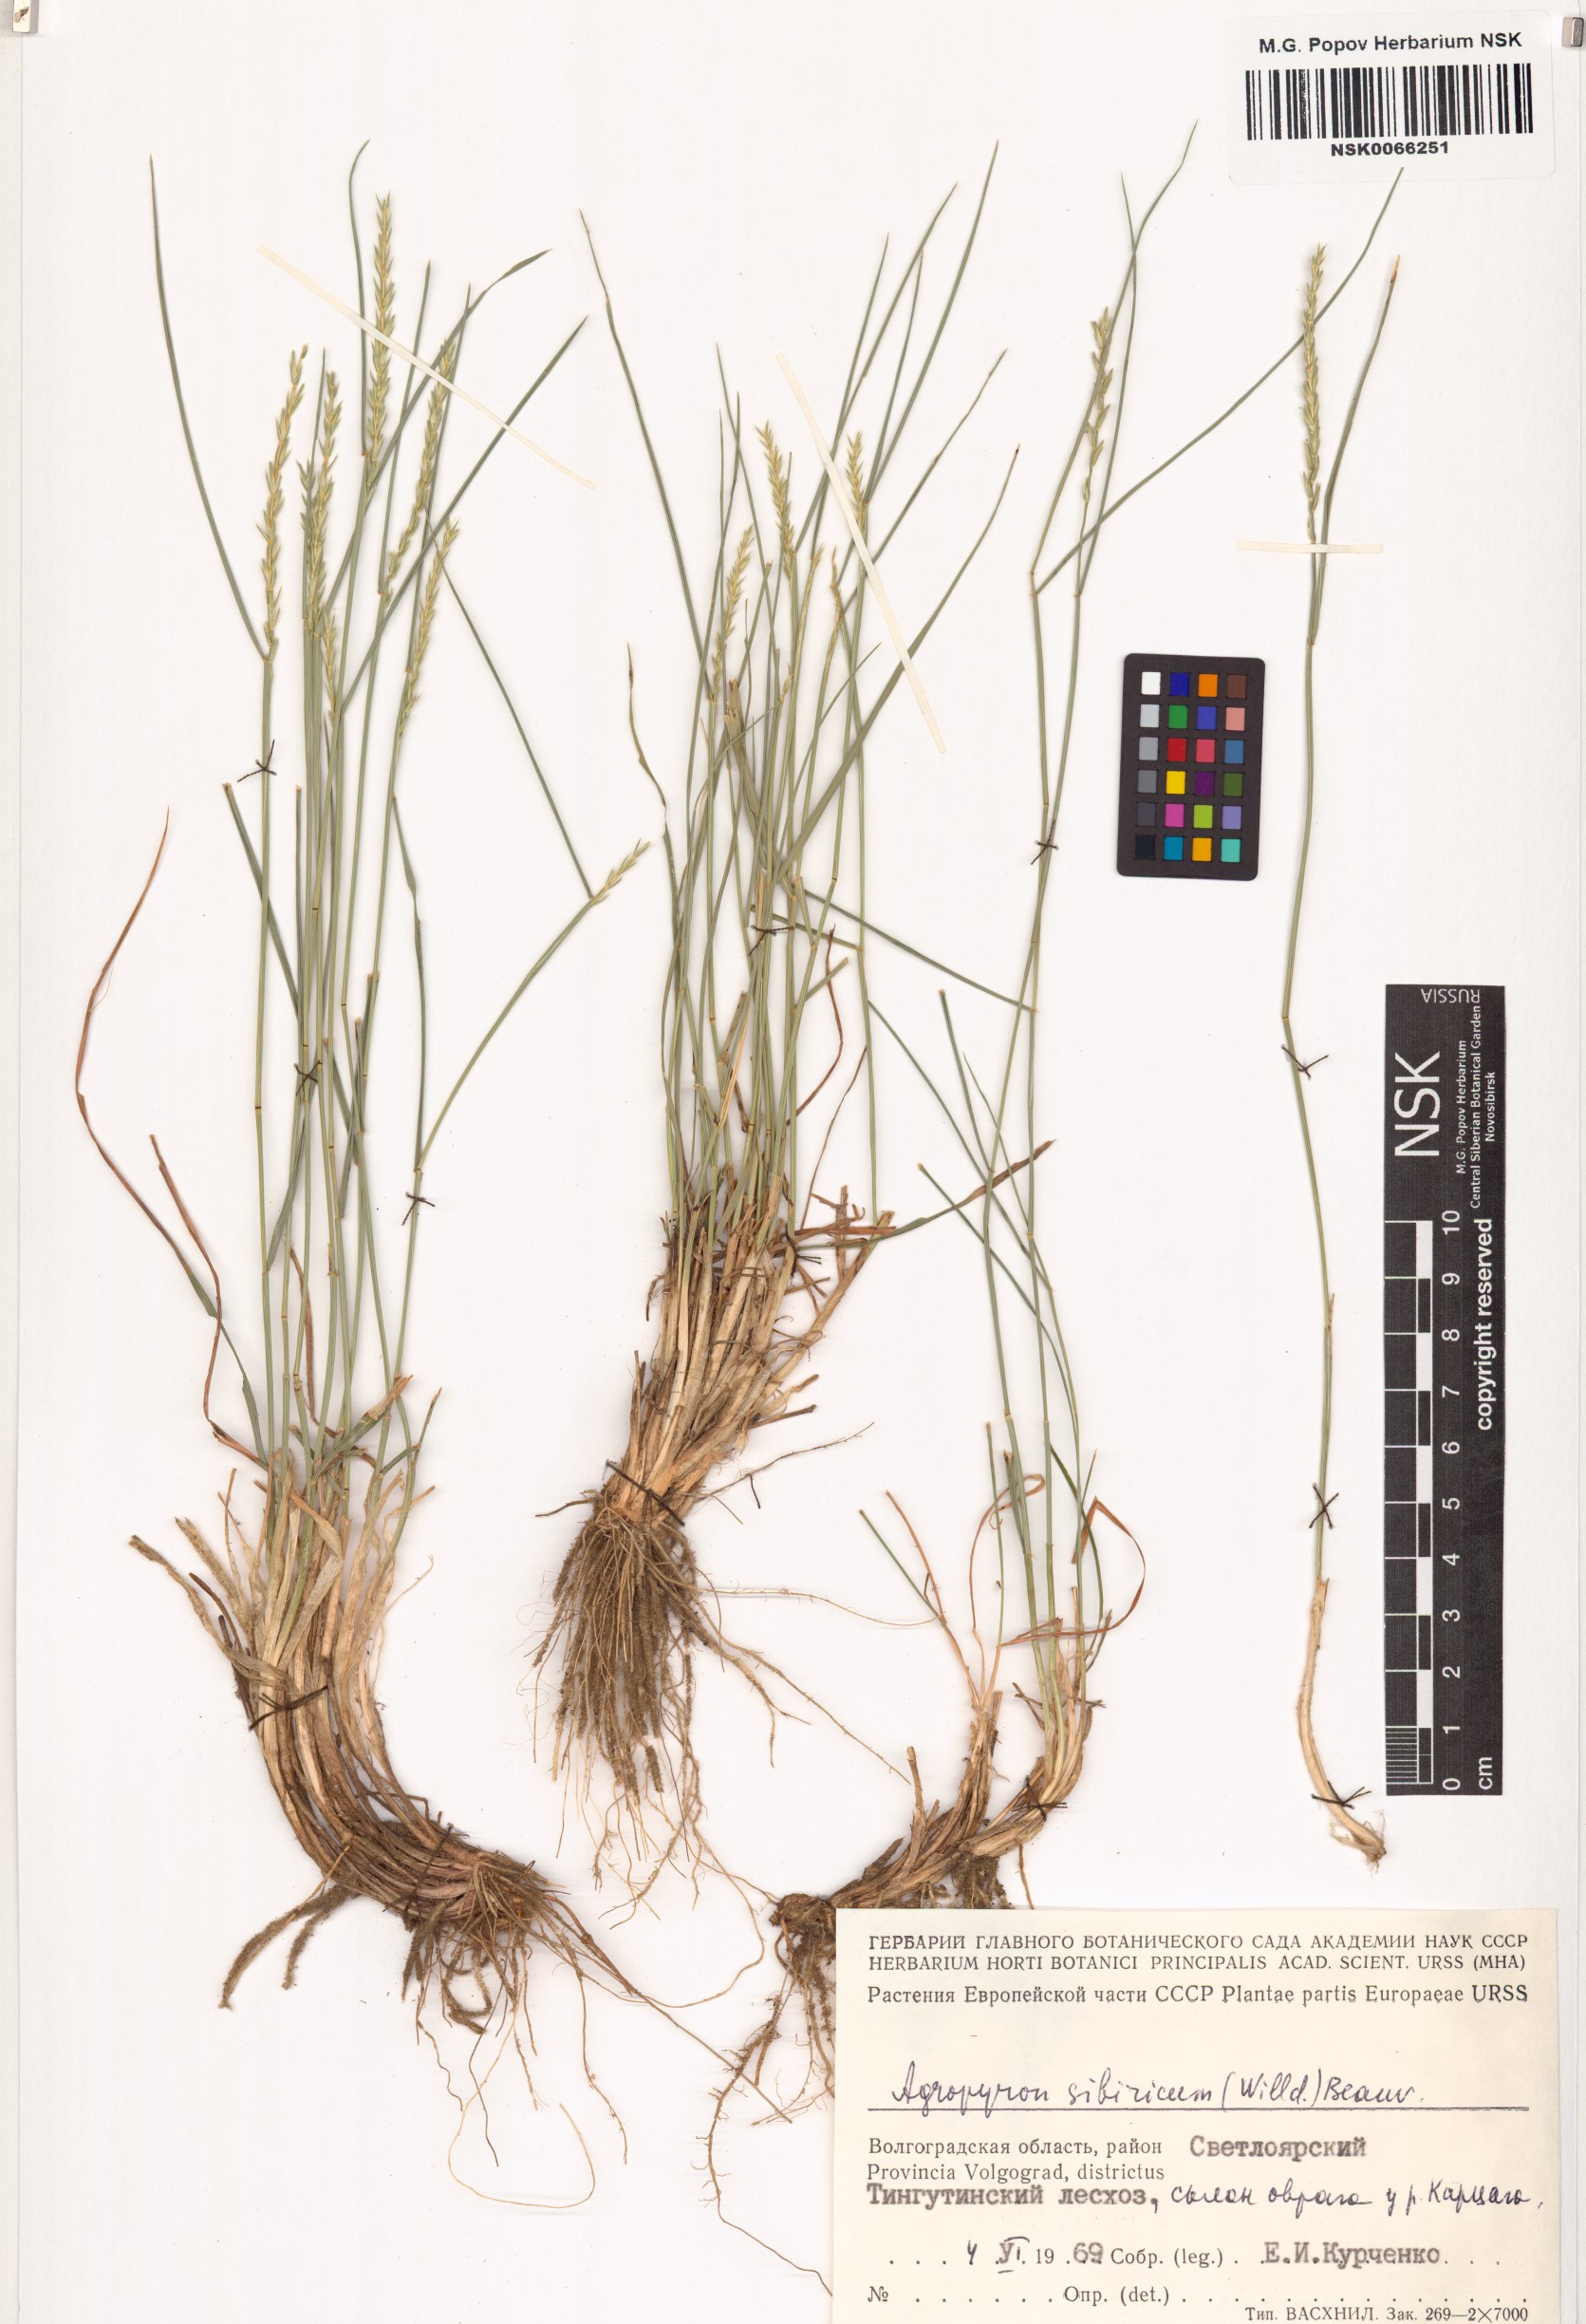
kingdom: Plantae
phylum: Tracheophyta
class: Liliopsida
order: Poales
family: Poaceae
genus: Agropyron
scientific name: Agropyron fragile
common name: Siberian wheatgrass
